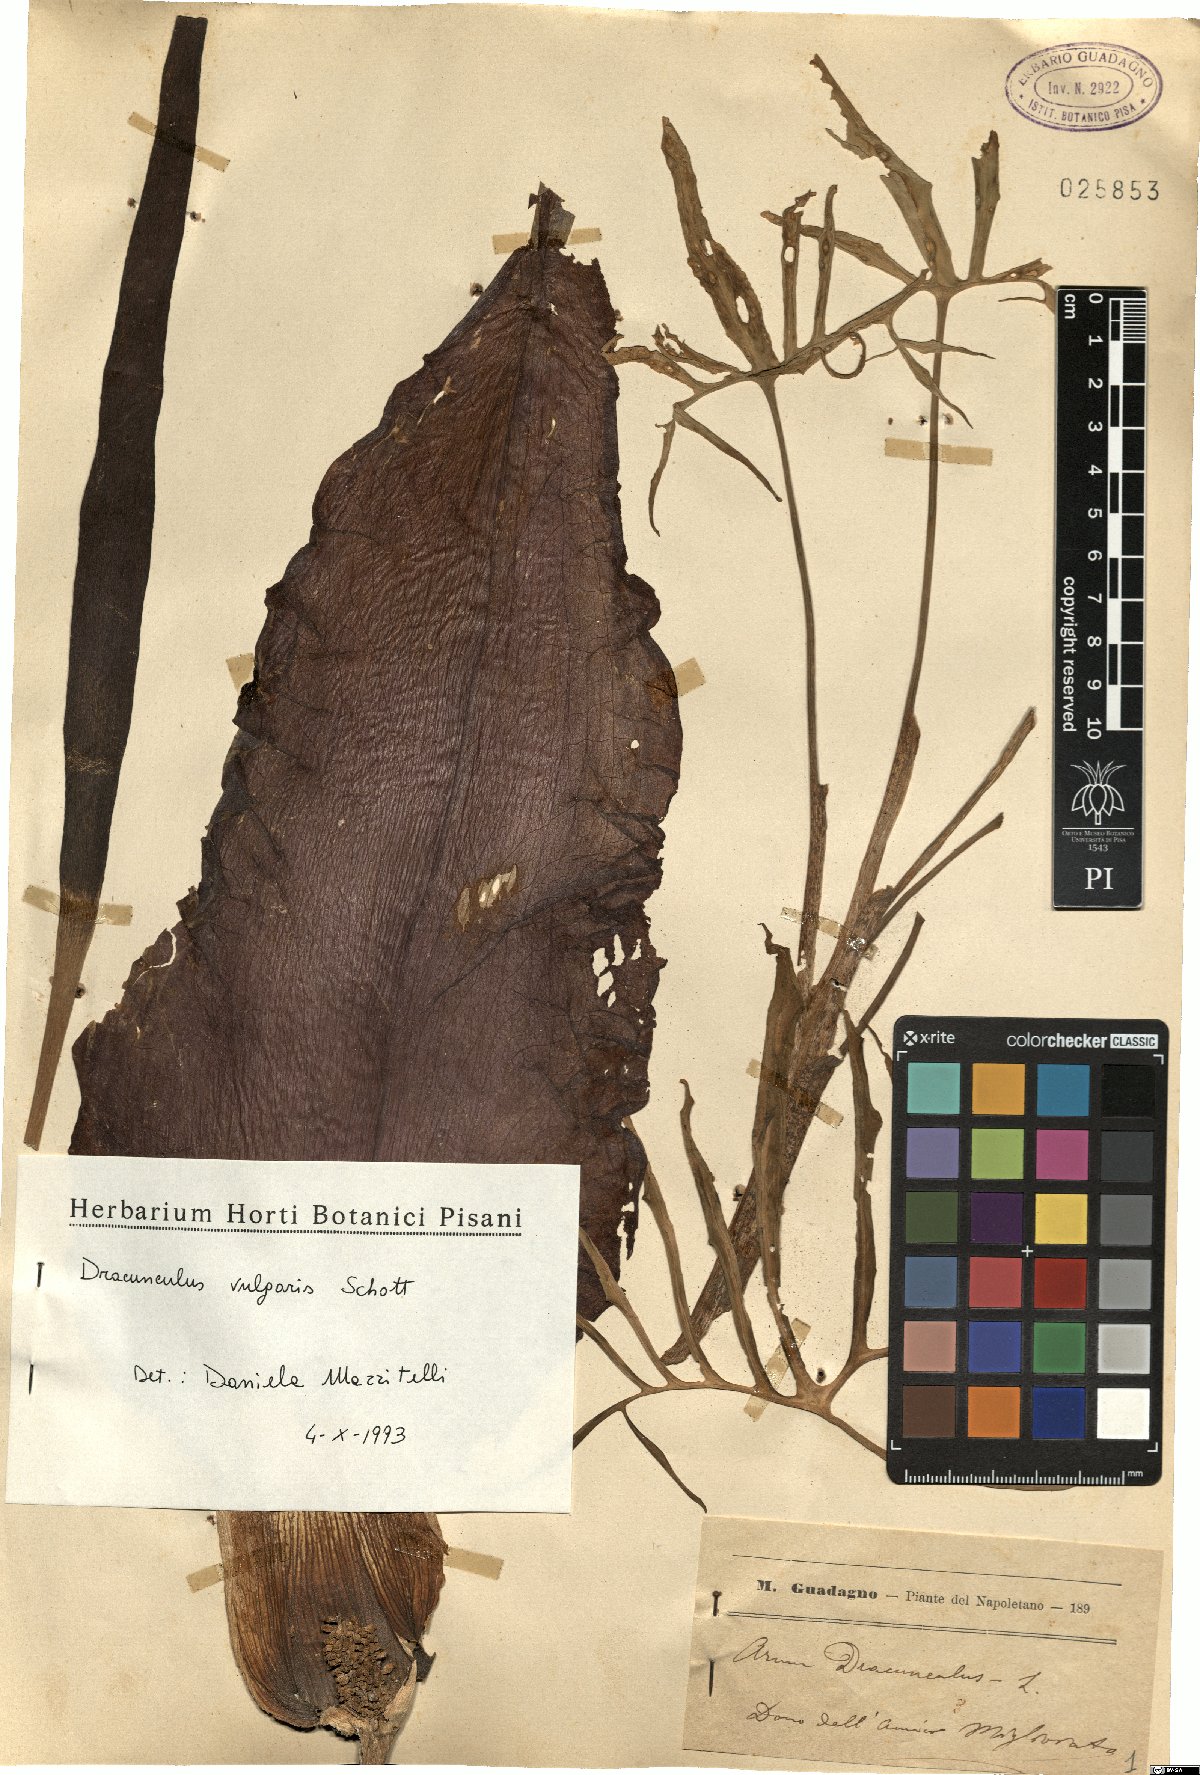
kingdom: Plantae
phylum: Tracheophyta
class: Liliopsida
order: Alismatales
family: Araceae
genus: Dracunculus
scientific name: Dracunculus vulgaris
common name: Dragon arum
